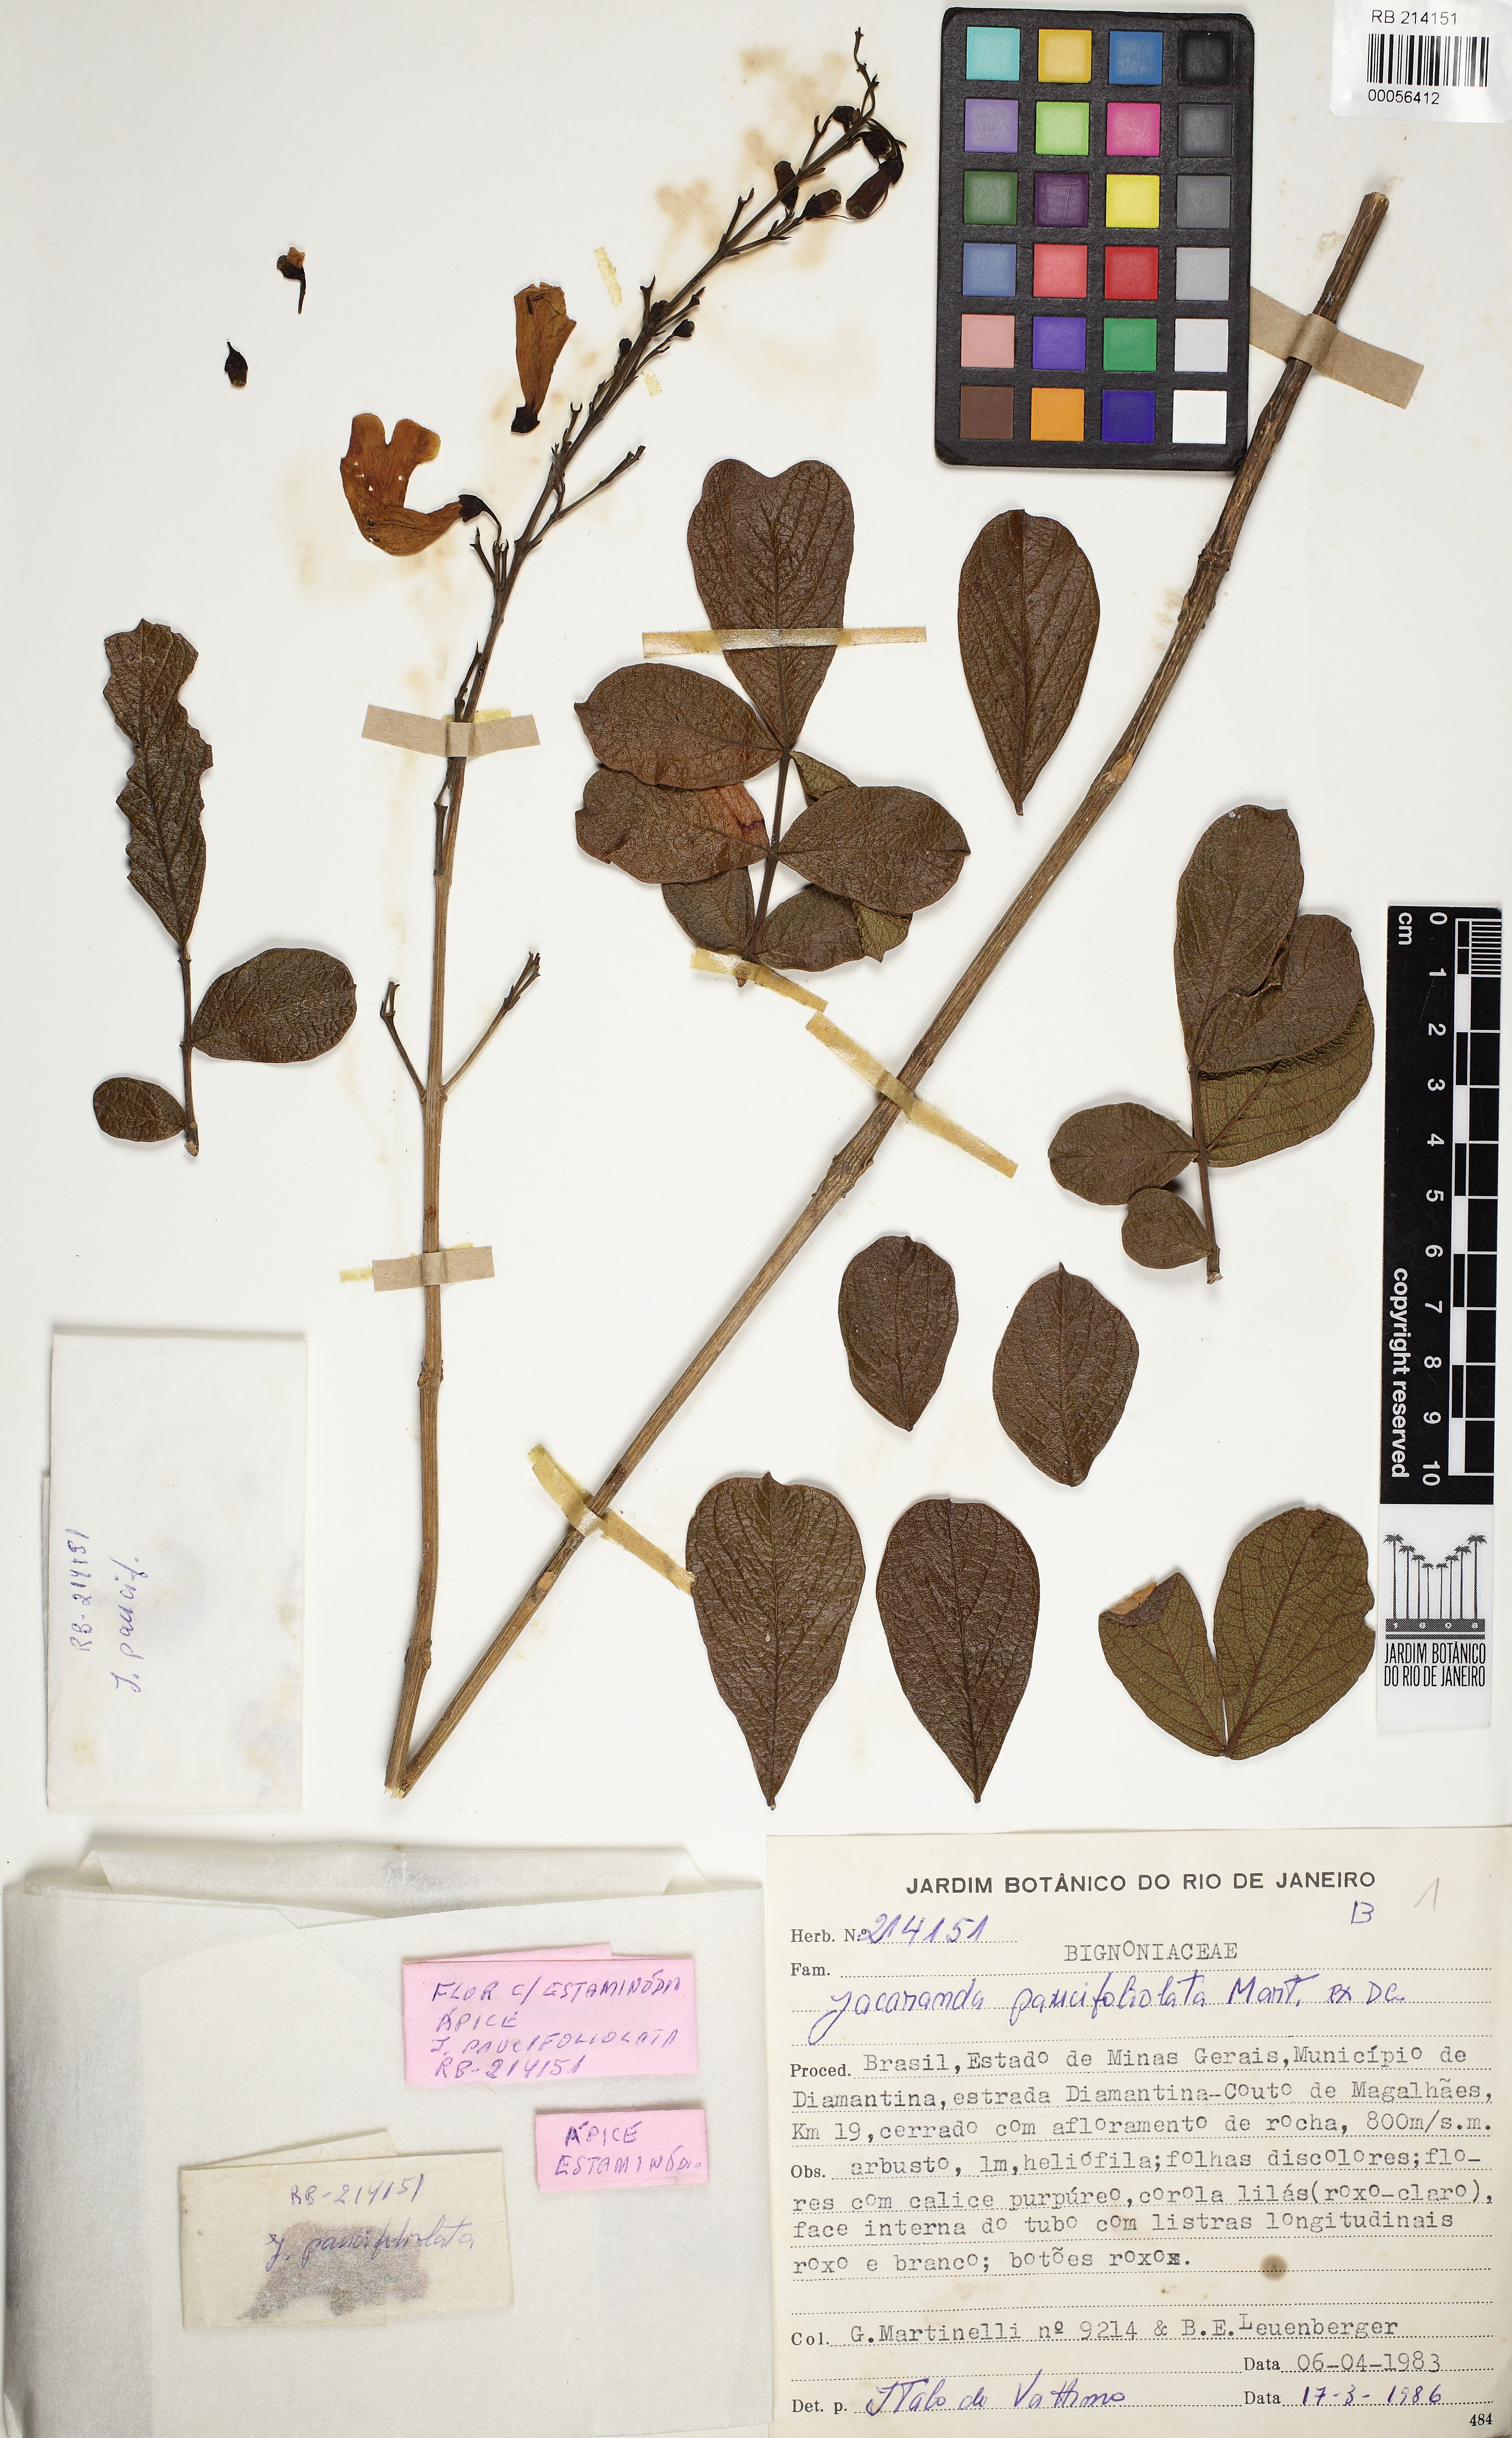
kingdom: Plantae
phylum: Tracheophyta
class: Magnoliopsida
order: Lamiales
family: Bignoniaceae
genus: Jacaranda
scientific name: Jacaranda paucifoliata
